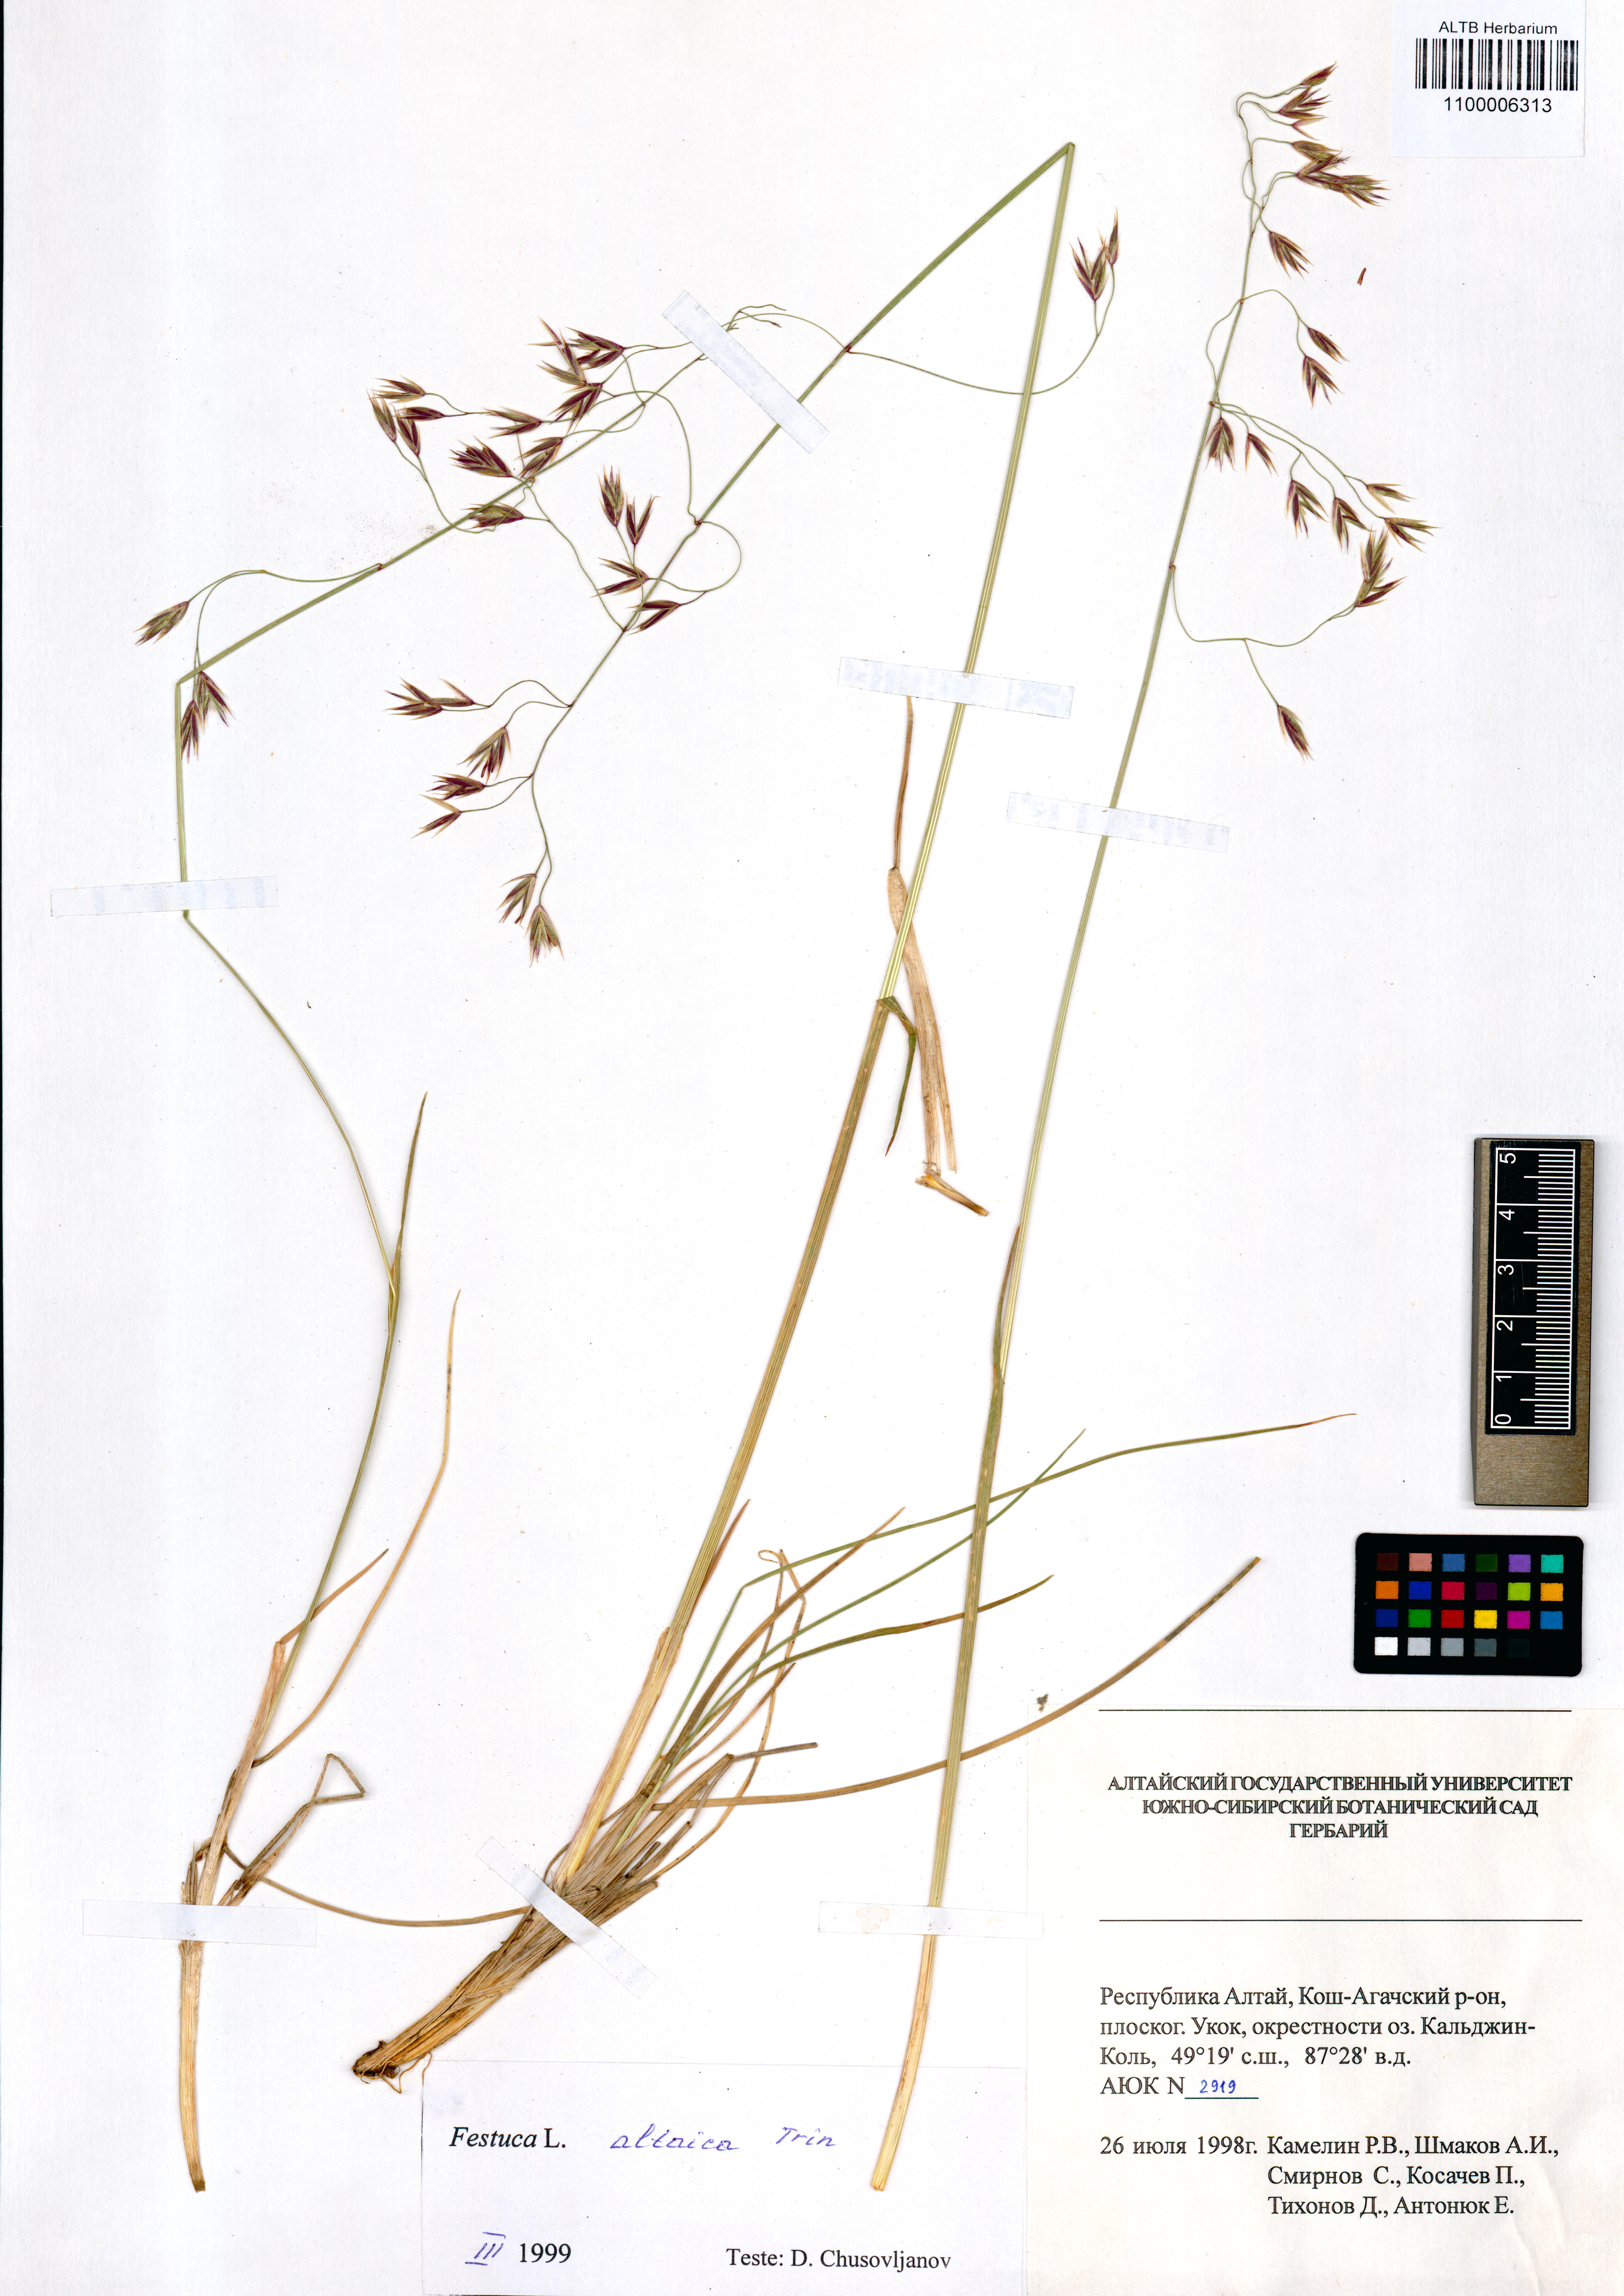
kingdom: Plantae
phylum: Tracheophyta
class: Liliopsida
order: Poales
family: Poaceae
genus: Festuca
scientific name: Festuca altaica
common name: Northern rough fescue
